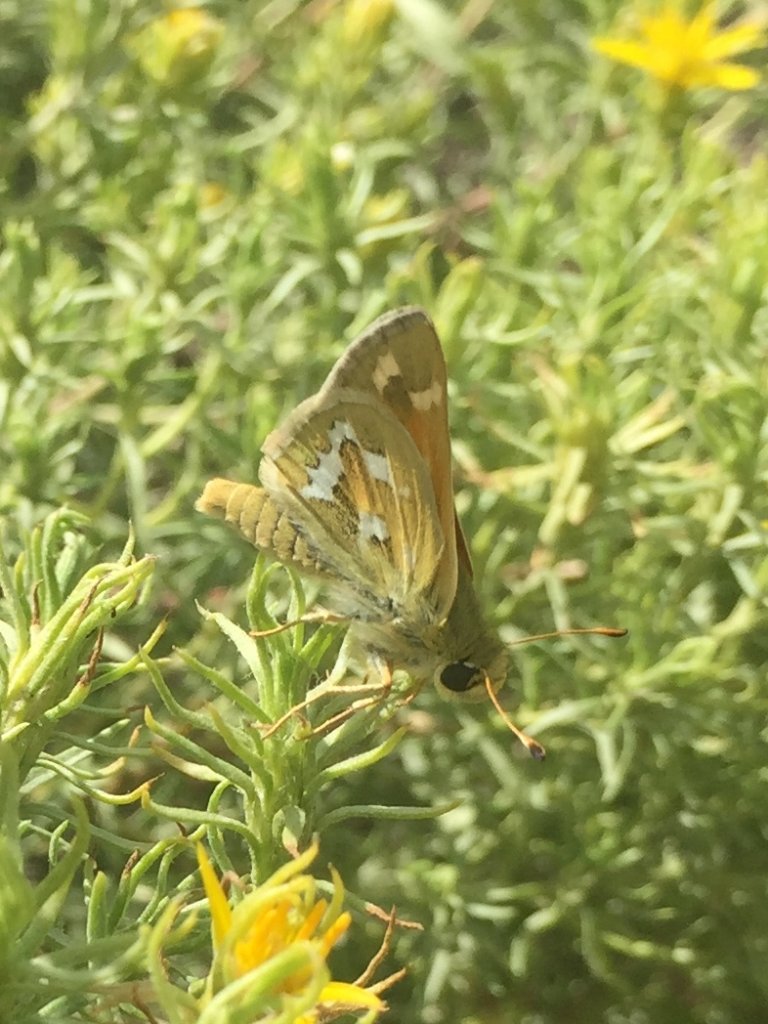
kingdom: Animalia
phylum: Arthropoda
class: Insecta
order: Lepidoptera
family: Hesperiidae
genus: Hesperia
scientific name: Hesperia comma
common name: Western Branded Skipper
